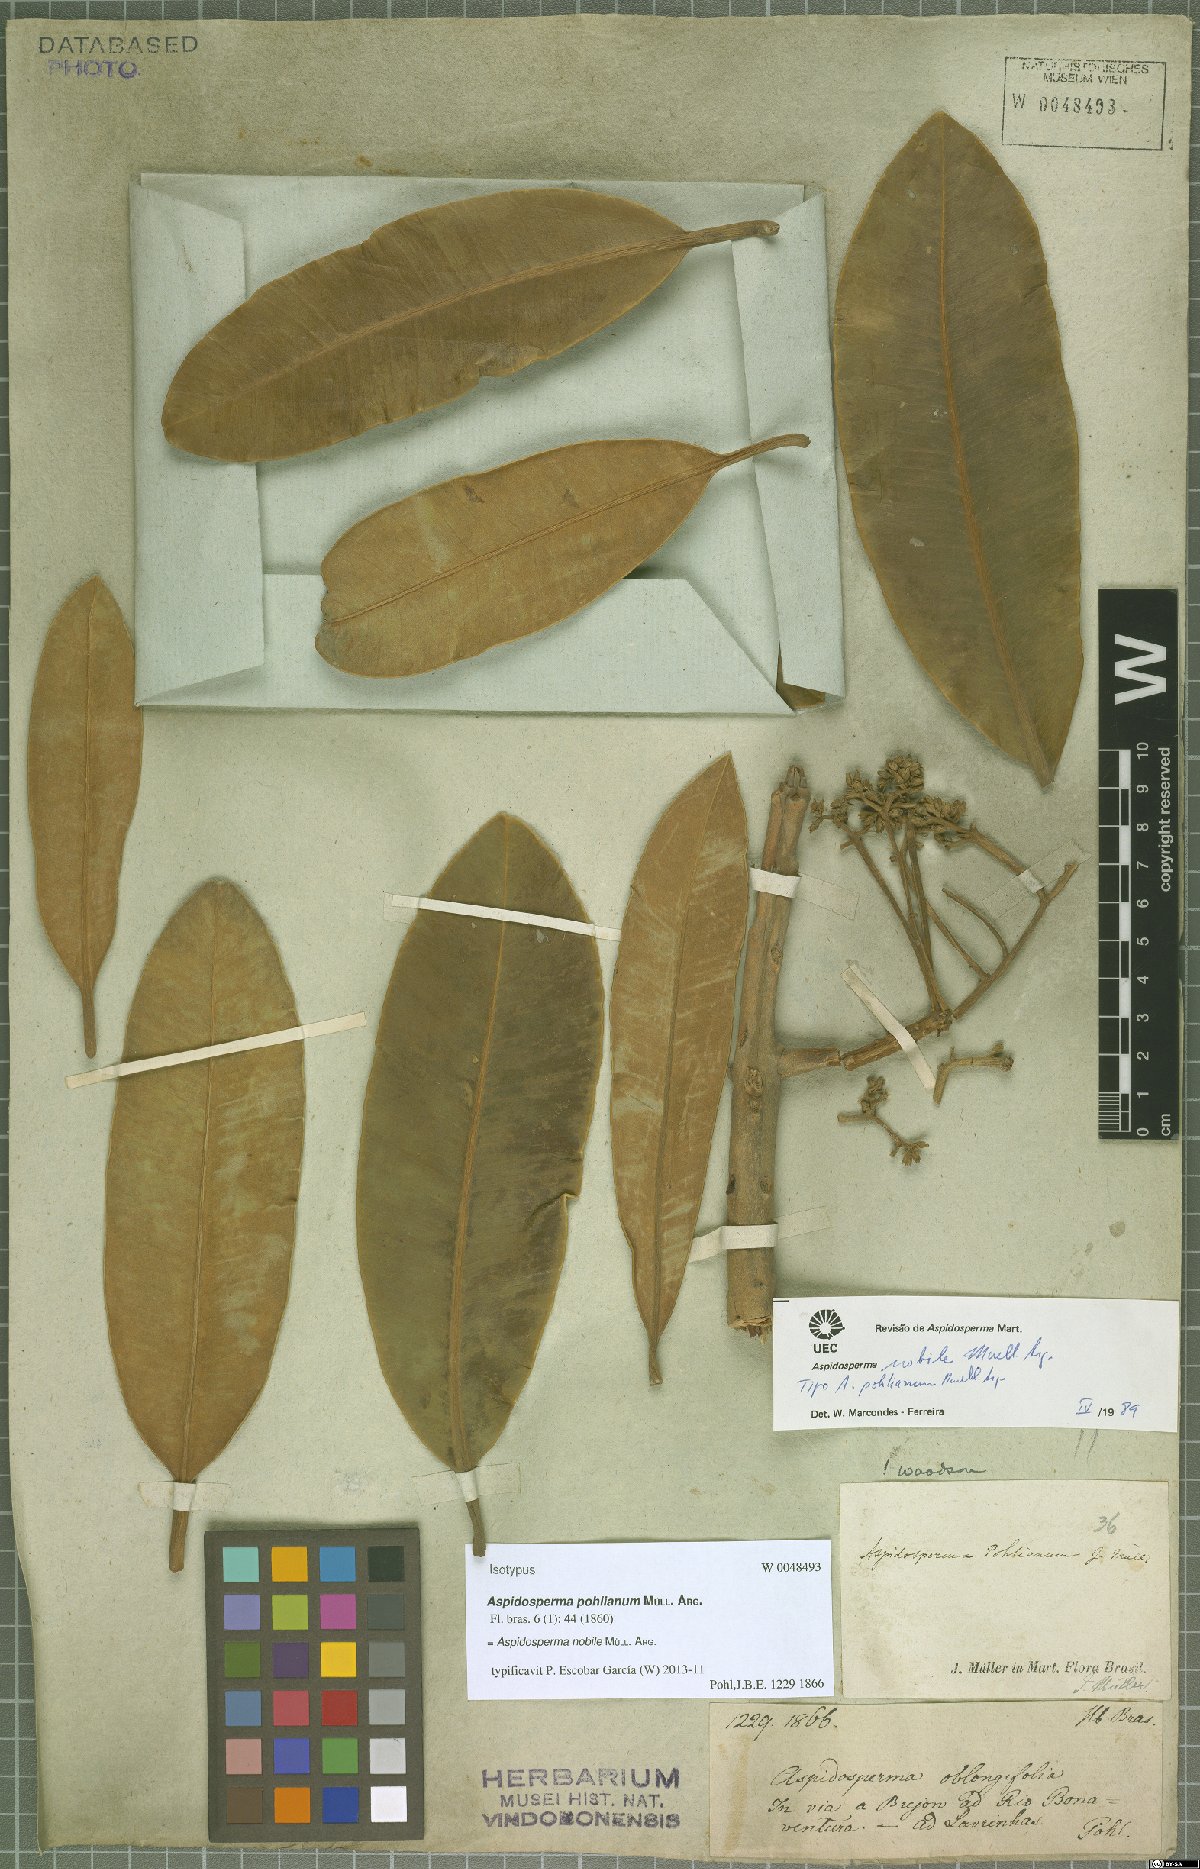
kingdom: Plantae
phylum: Tracheophyta
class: Magnoliopsida
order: Gentianales
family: Apocynaceae
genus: Aspidosperma
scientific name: Aspidosperma nobile
